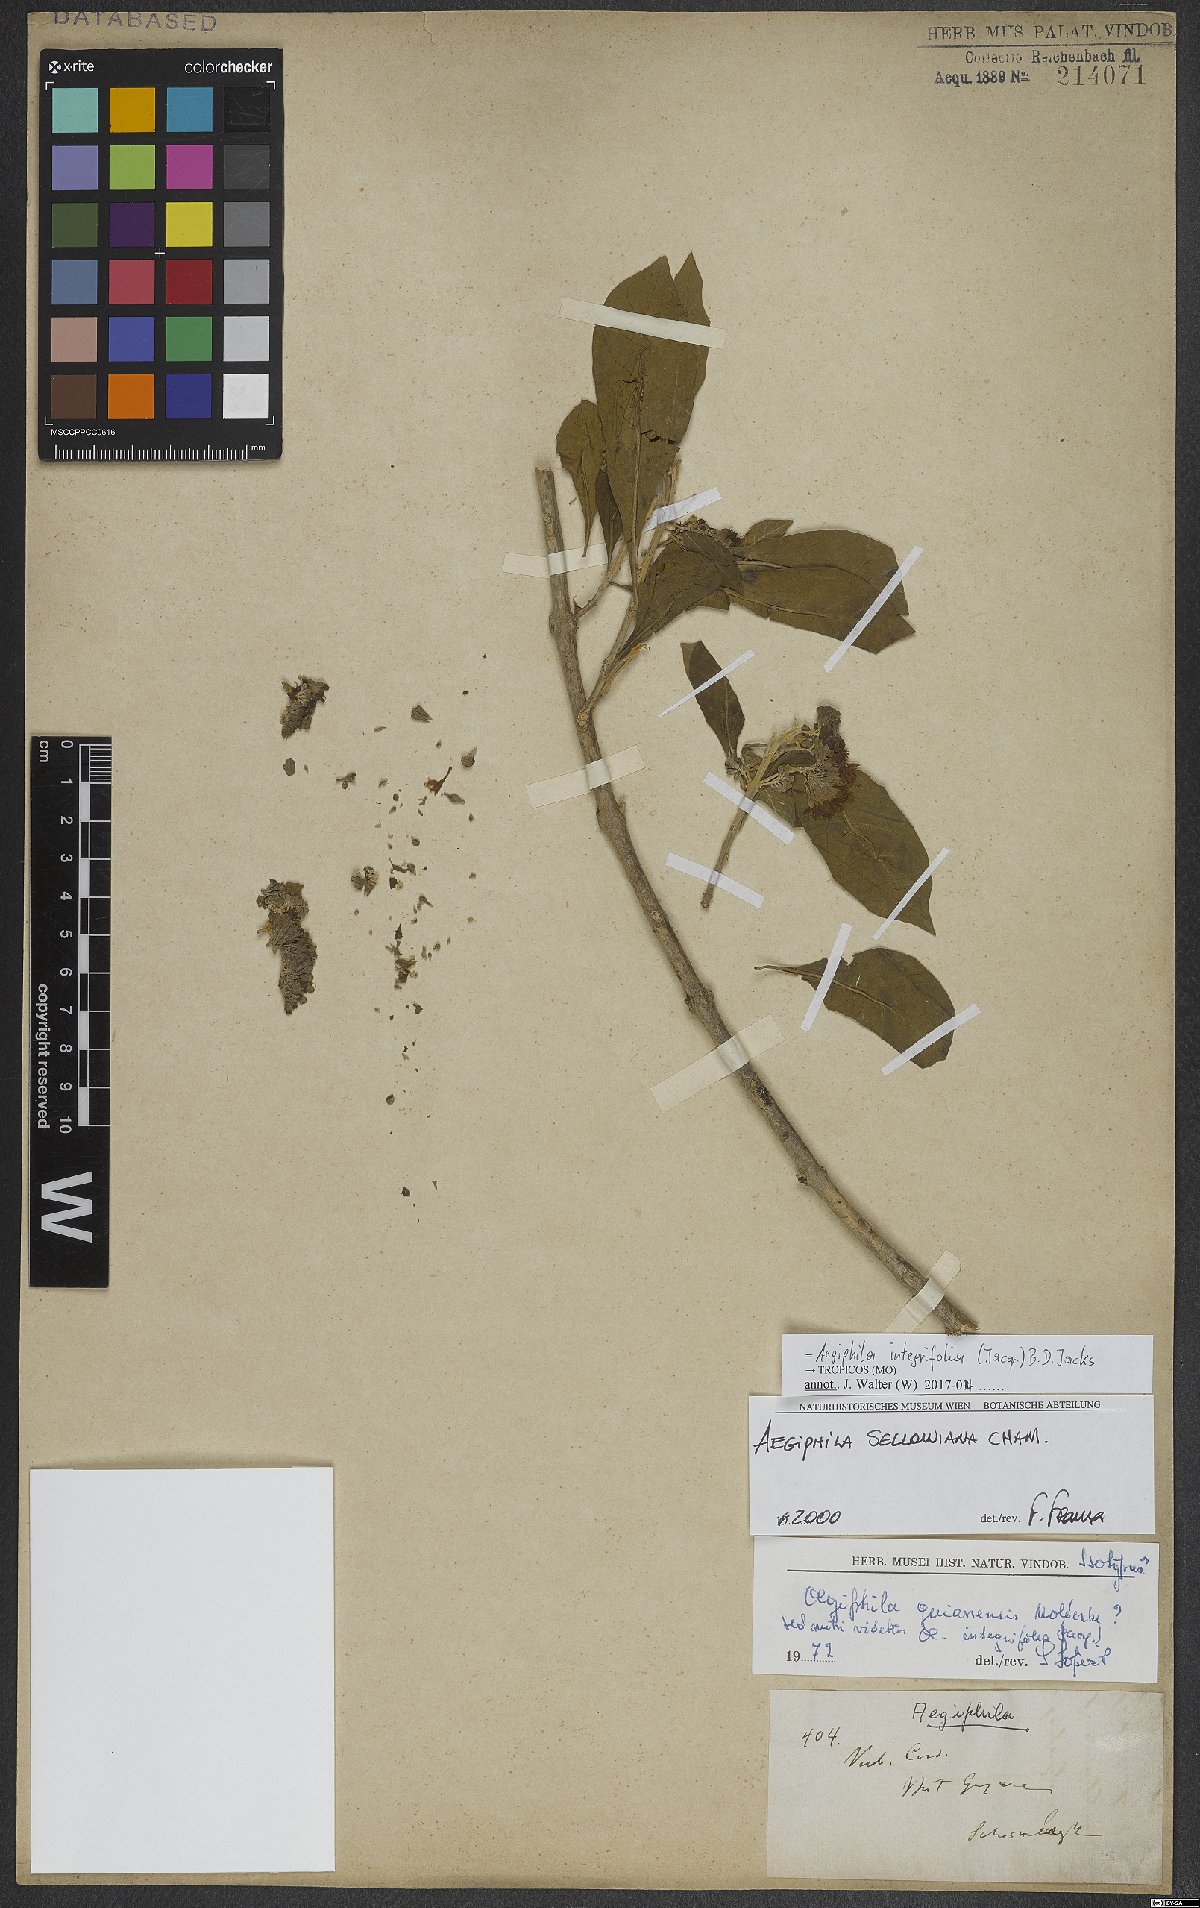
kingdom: Plantae
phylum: Tracheophyta
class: Magnoliopsida
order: Lamiales
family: Lamiaceae
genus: Aegiphila
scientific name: Aegiphila integrifolia
